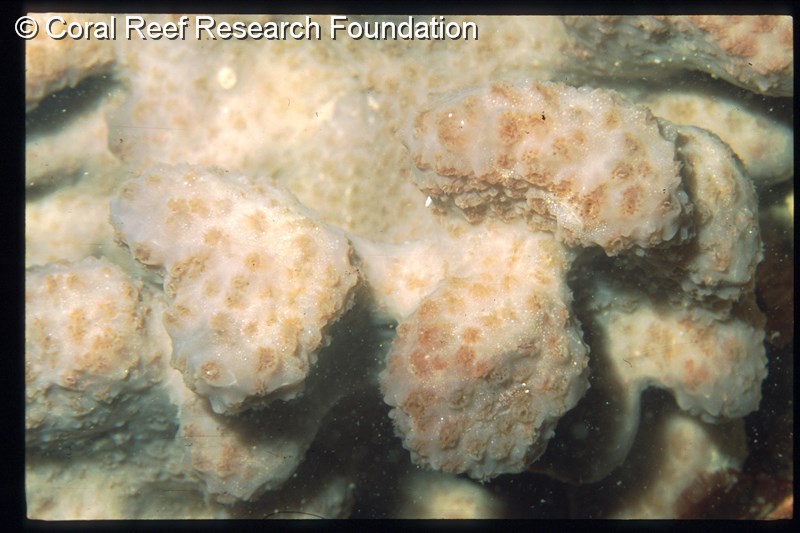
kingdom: Animalia
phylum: Chordata
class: Ascidiacea
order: Aplousobranchia
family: Polyclinidae
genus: Aplidium
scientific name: Aplidium
